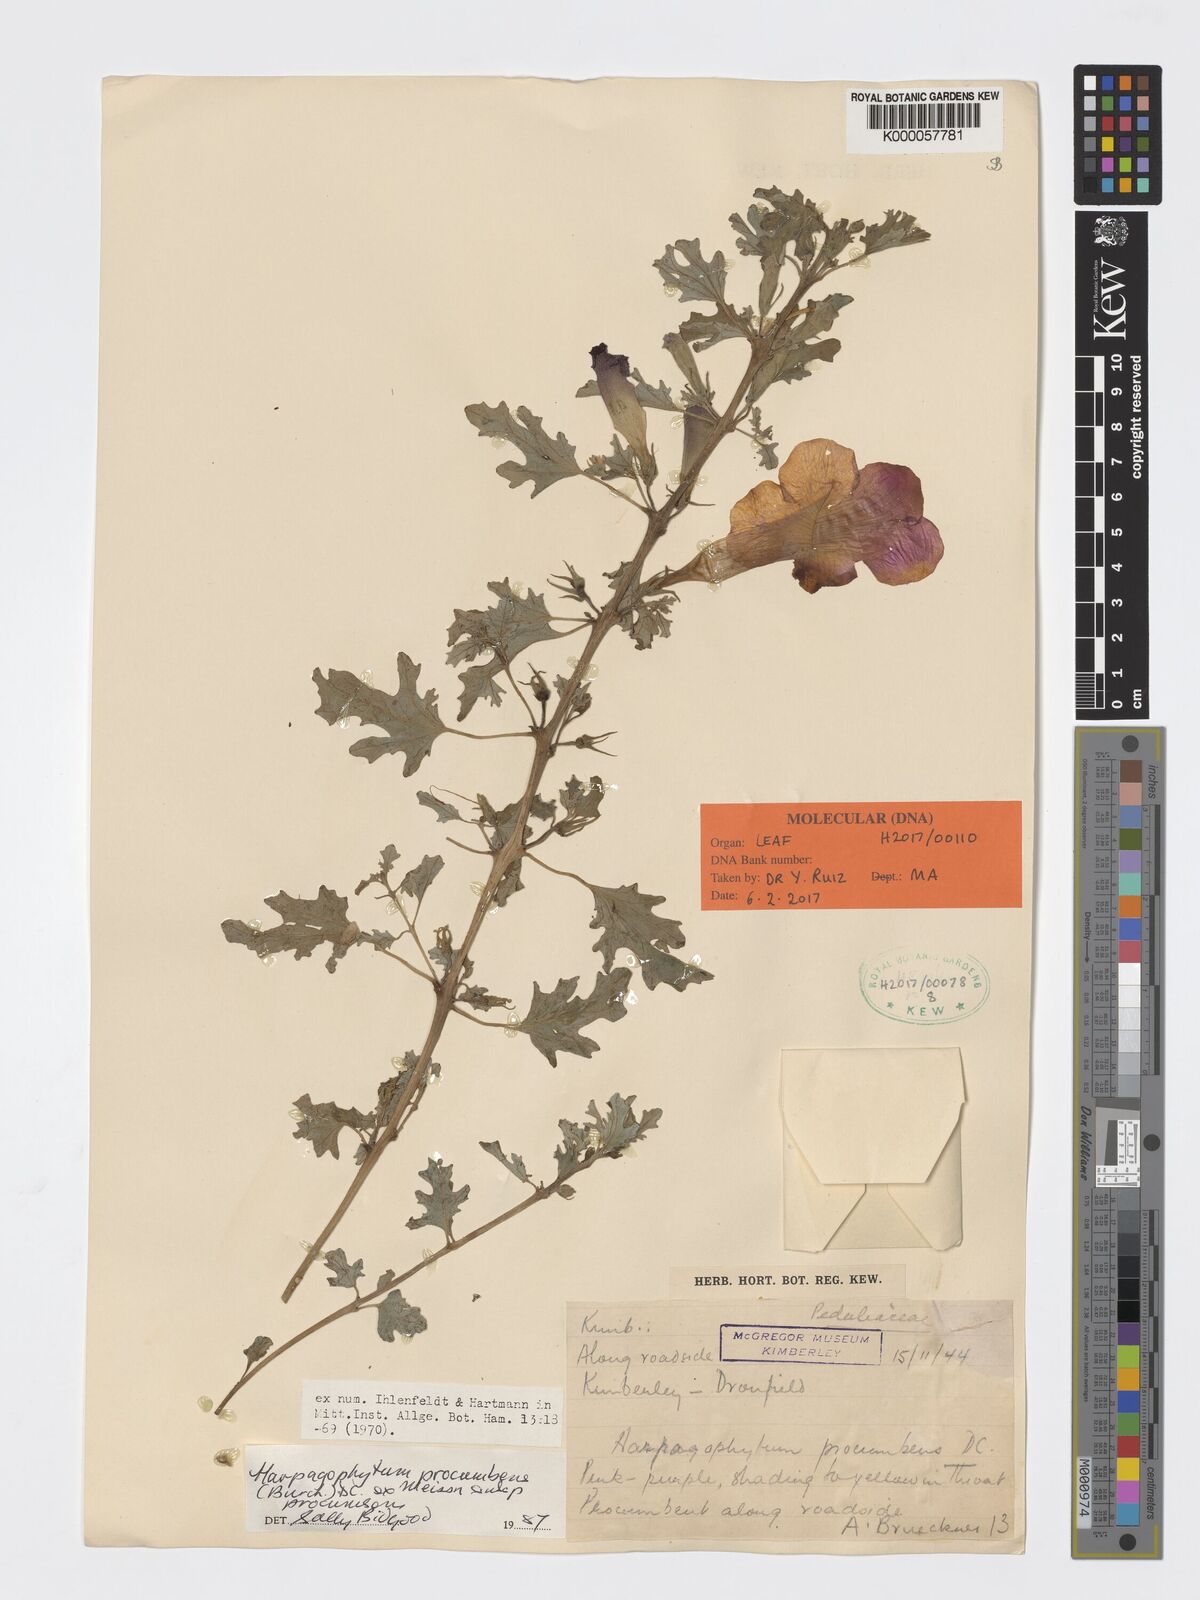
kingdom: Plantae
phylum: Tracheophyta
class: Magnoliopsida
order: Lamiales
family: Pedaliaceae
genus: Harpagophytum
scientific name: Harpagophytum procumbens
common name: Grappleplant
